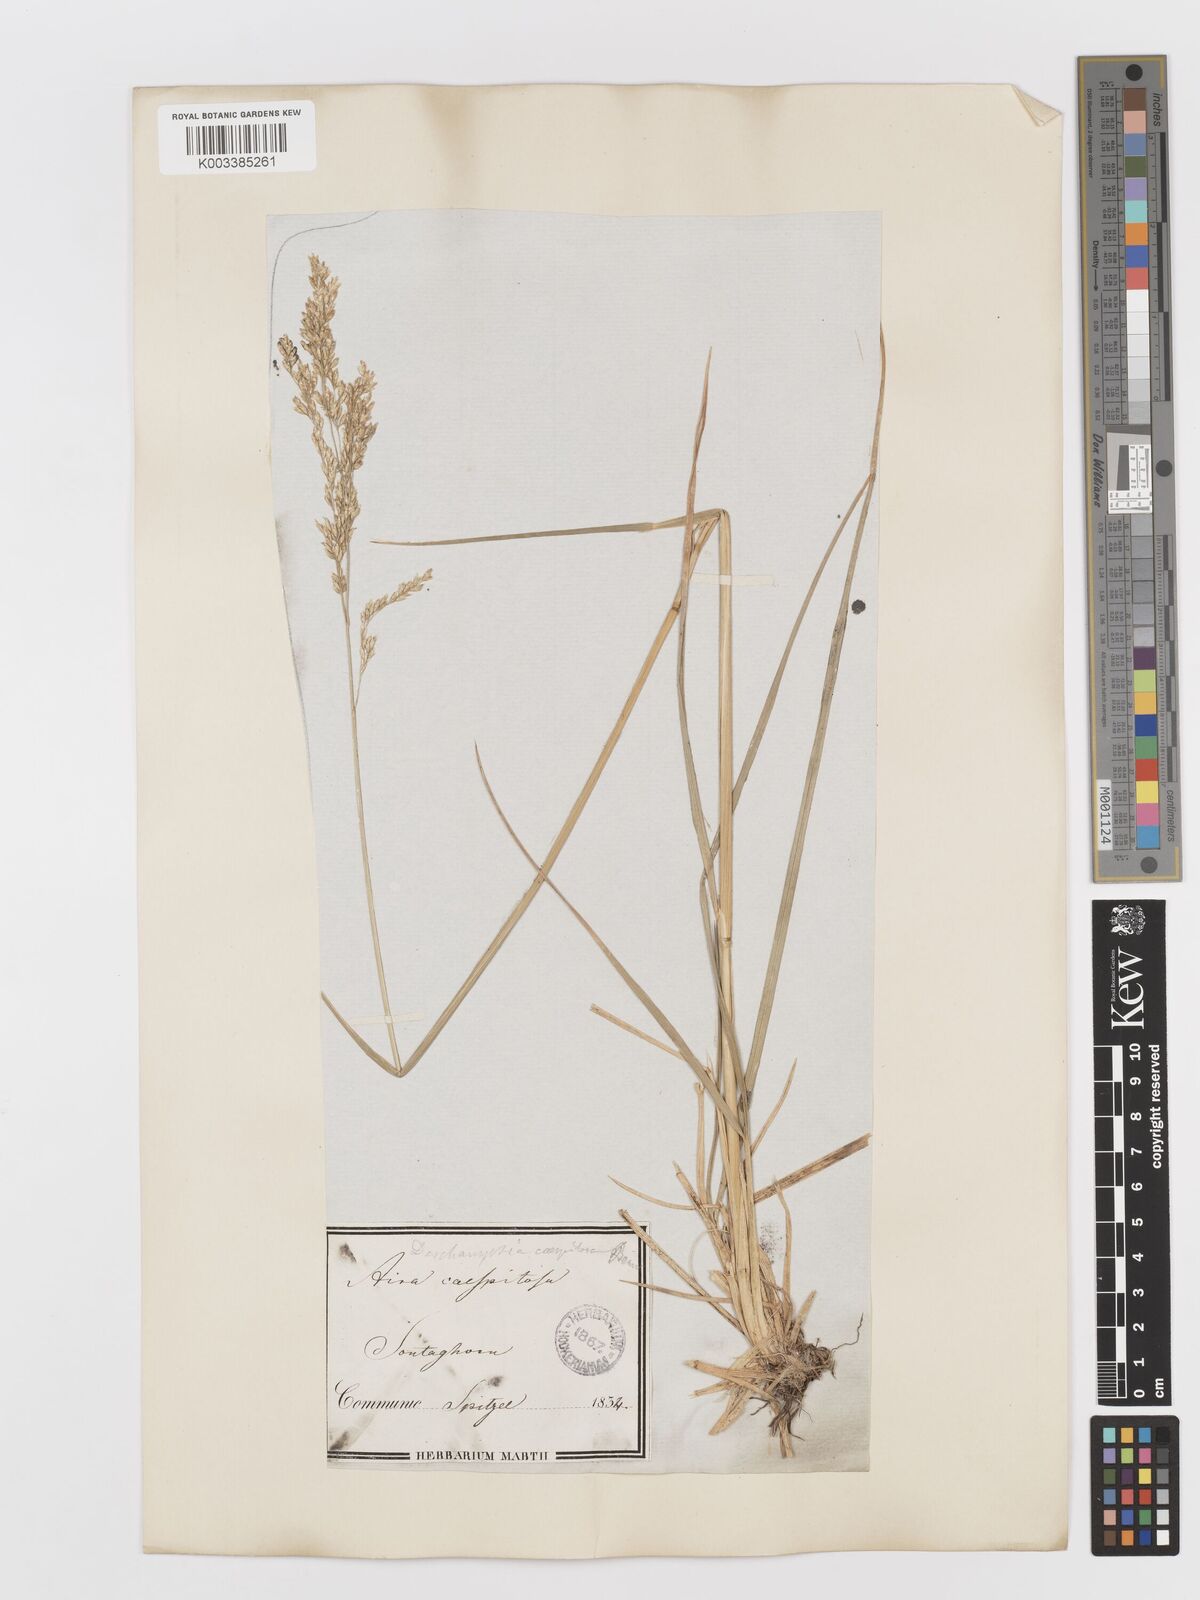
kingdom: Plantae
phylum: Tracheophyta
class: Liliopsida
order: Poales
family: Poaceae
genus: Deschampsia
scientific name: Deschampsia cespitosa
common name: Tufted hair-grass
